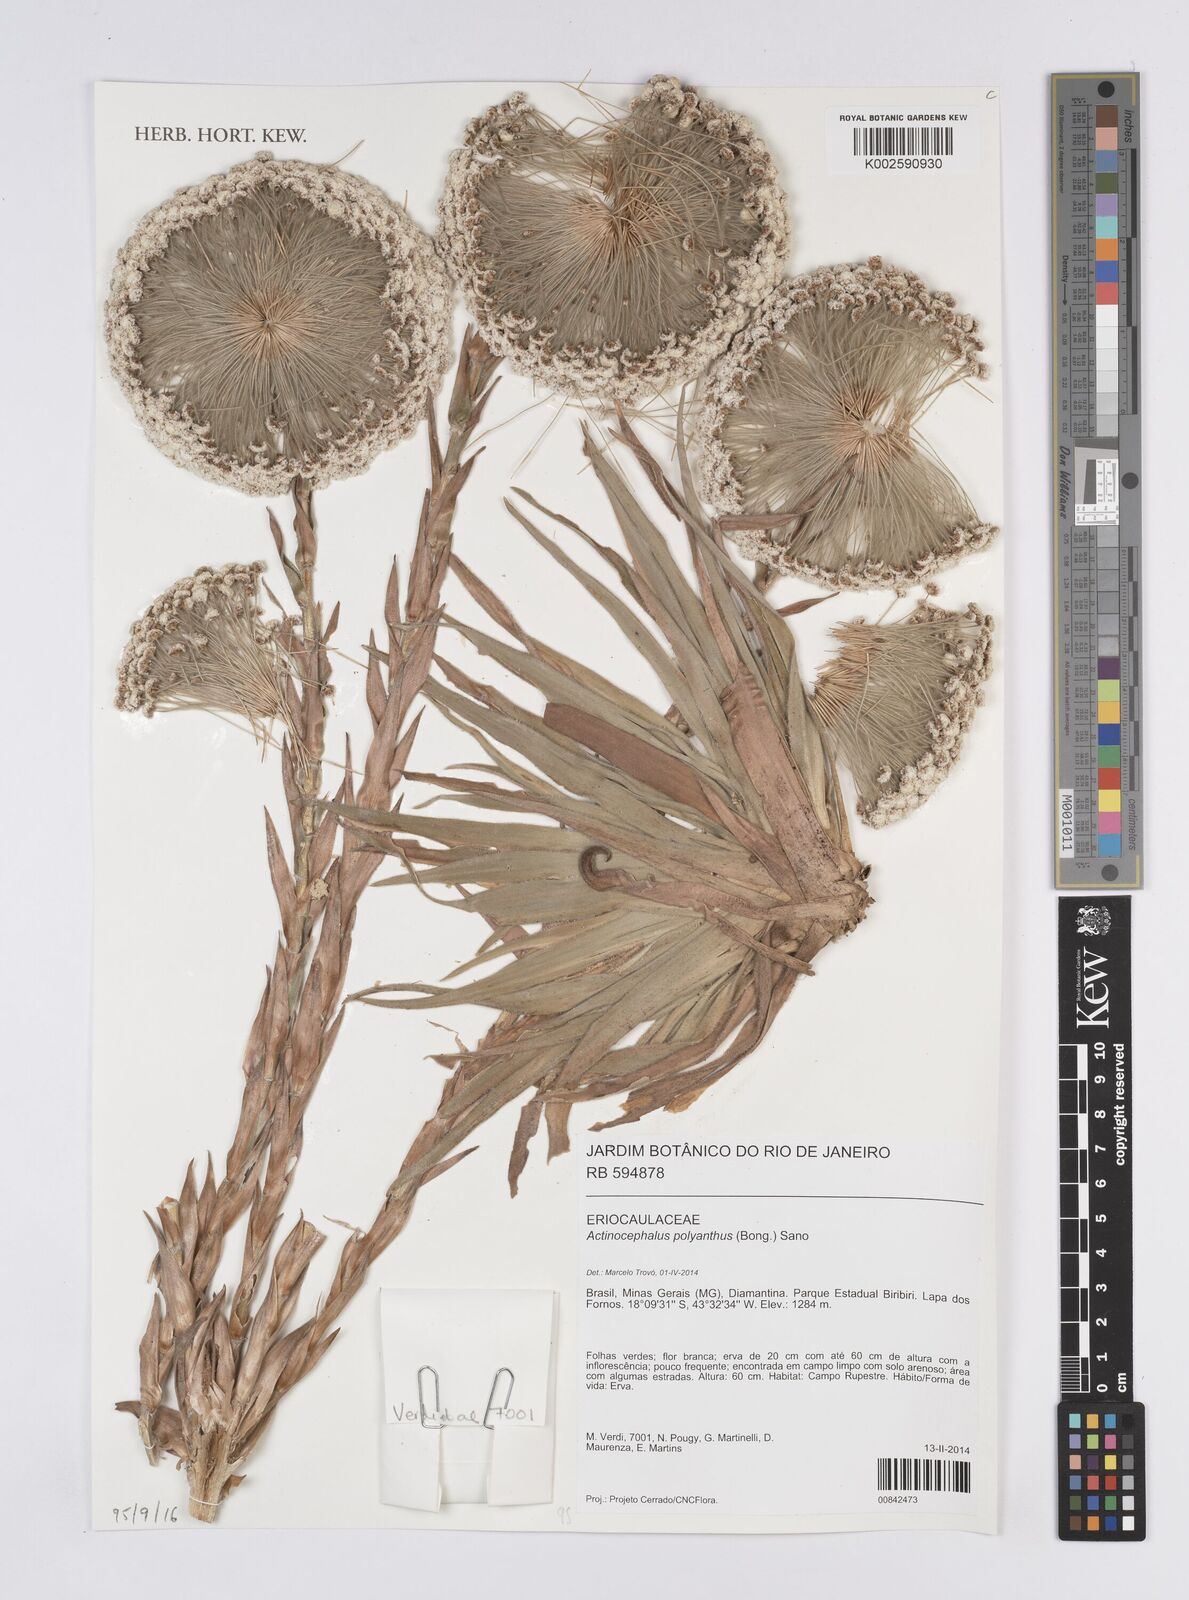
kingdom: Plantae
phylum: Tracheophyta
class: Liliopsida
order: Poales
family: Eriocaulaceae
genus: Paepalanthus
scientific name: Paepalanthus polyanthus
